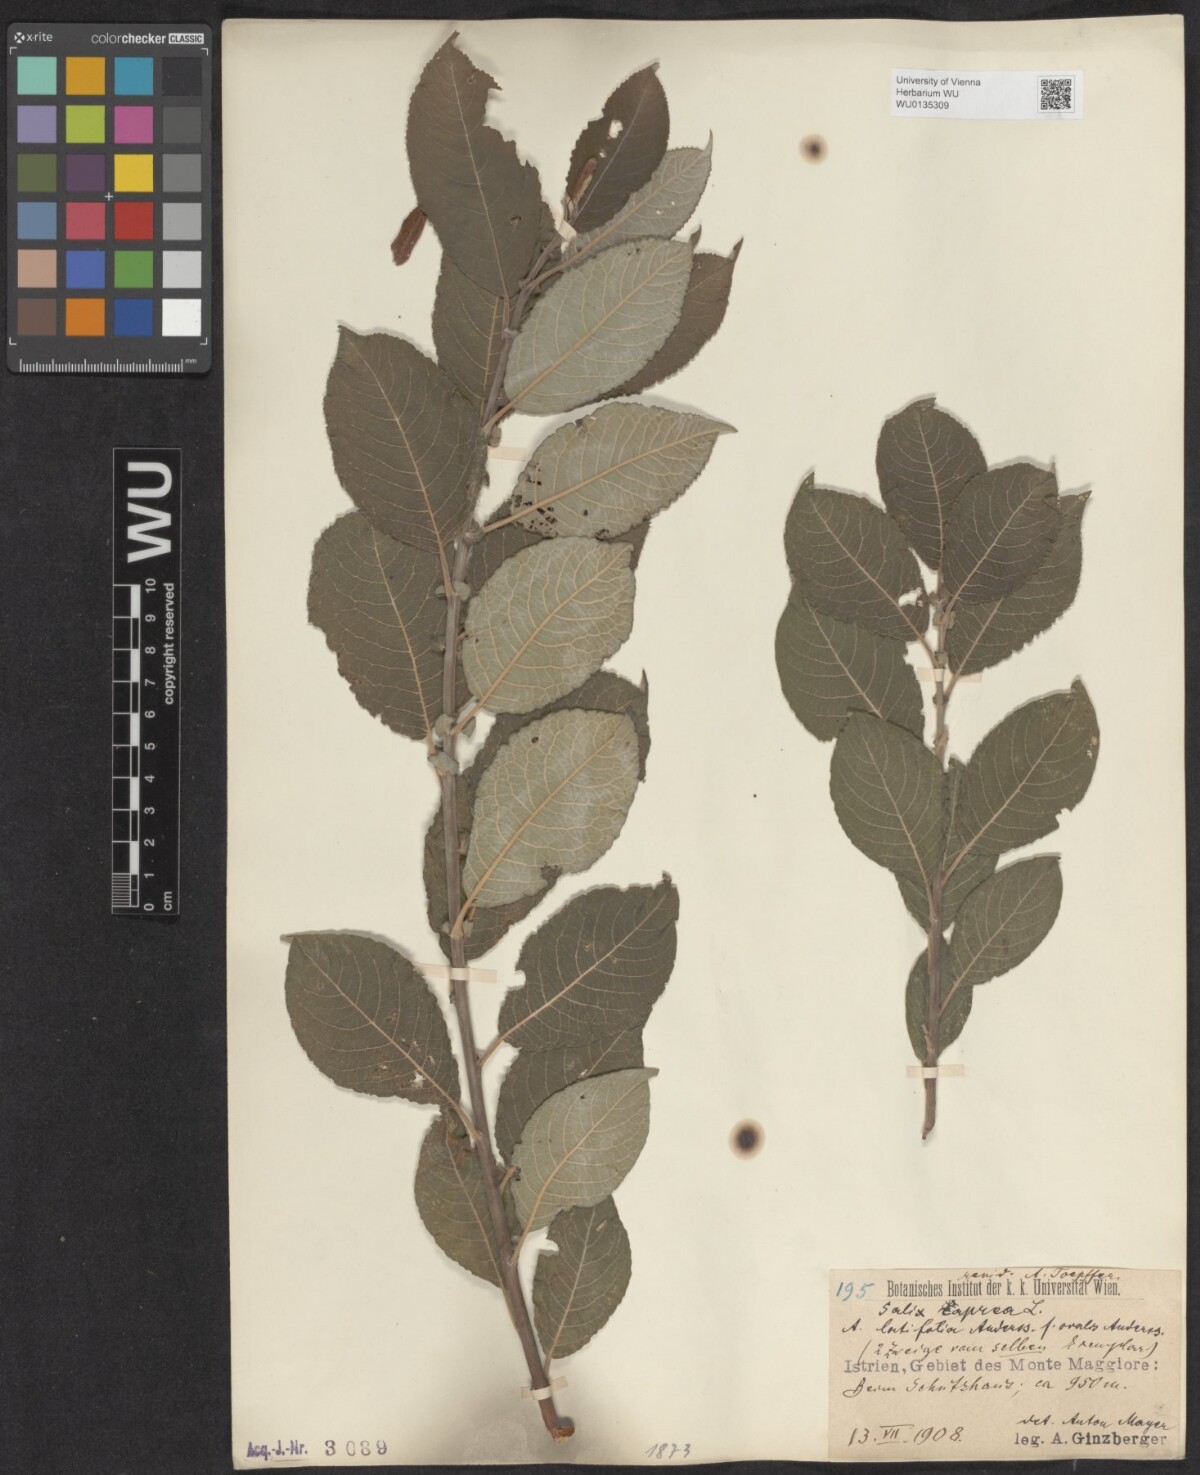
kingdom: Plantae
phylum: Tracheophyta
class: Magnoliopsida
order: Malpighiales
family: Salicaceae
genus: Salix
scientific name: Salix caprea
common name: Goat willow
